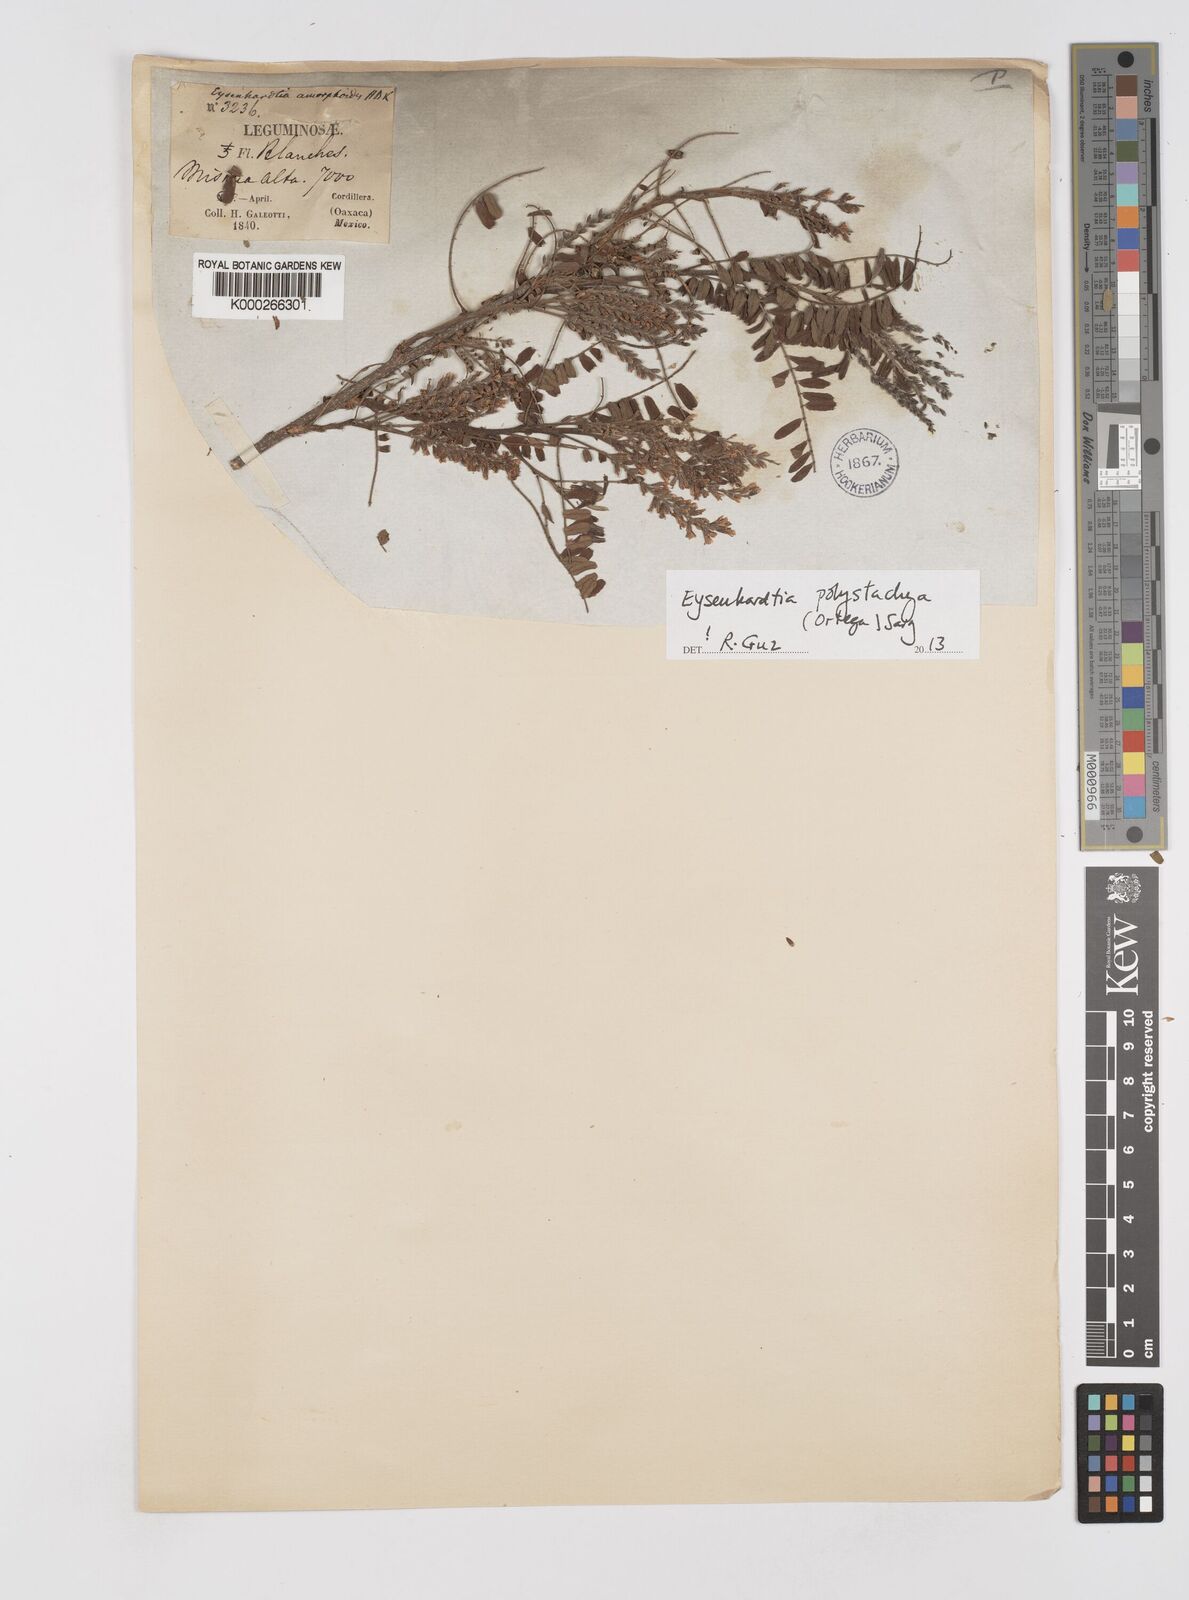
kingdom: Plantae
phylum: Tracheophyta
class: Magnoliopsida
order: Fabales
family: Fabaceae
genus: Eysenhardtia
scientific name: Eysenhardtia polystachya
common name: Kidneywood
